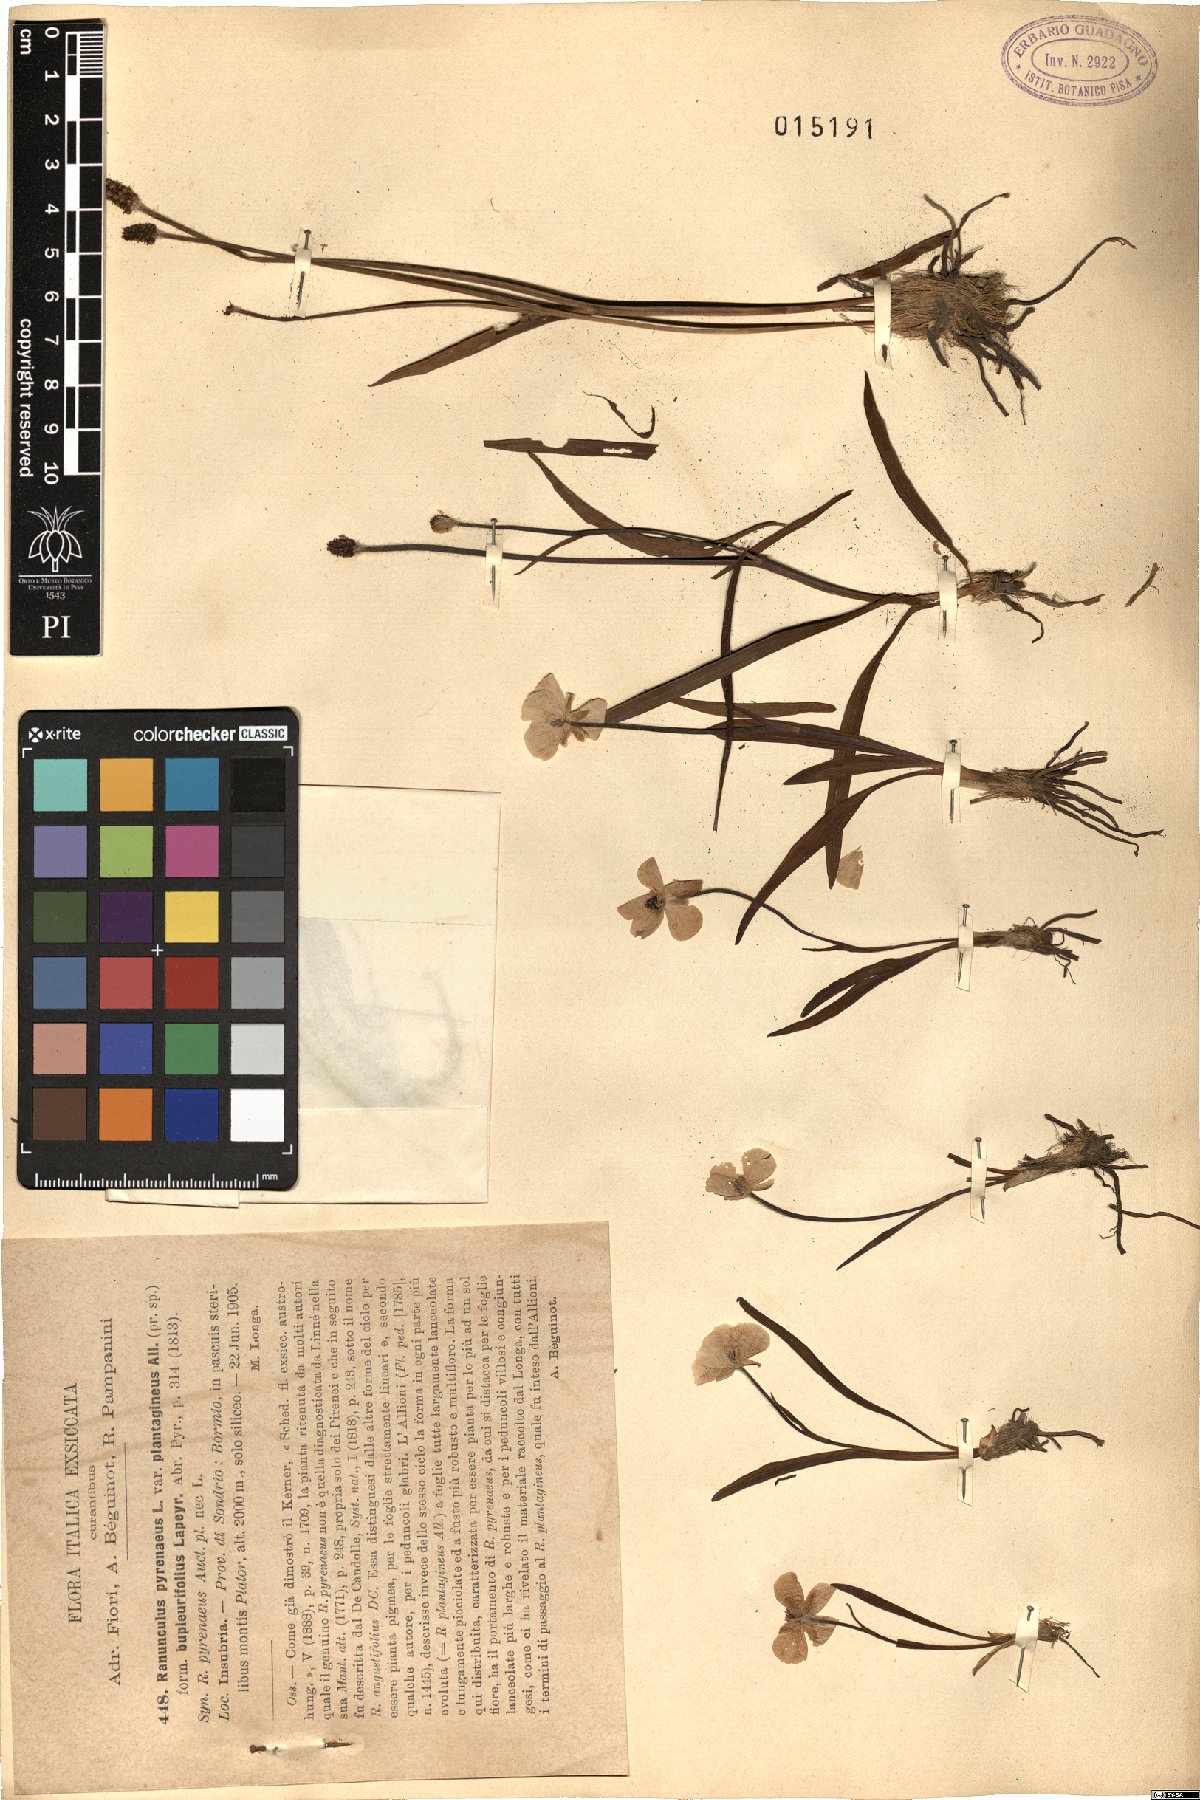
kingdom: Plantae
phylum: Tracheophyta
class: Magnoliopsida
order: Ranunculales
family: Ranunculaceae
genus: Ranunculus
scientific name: Ranunculus pyrenaeus
